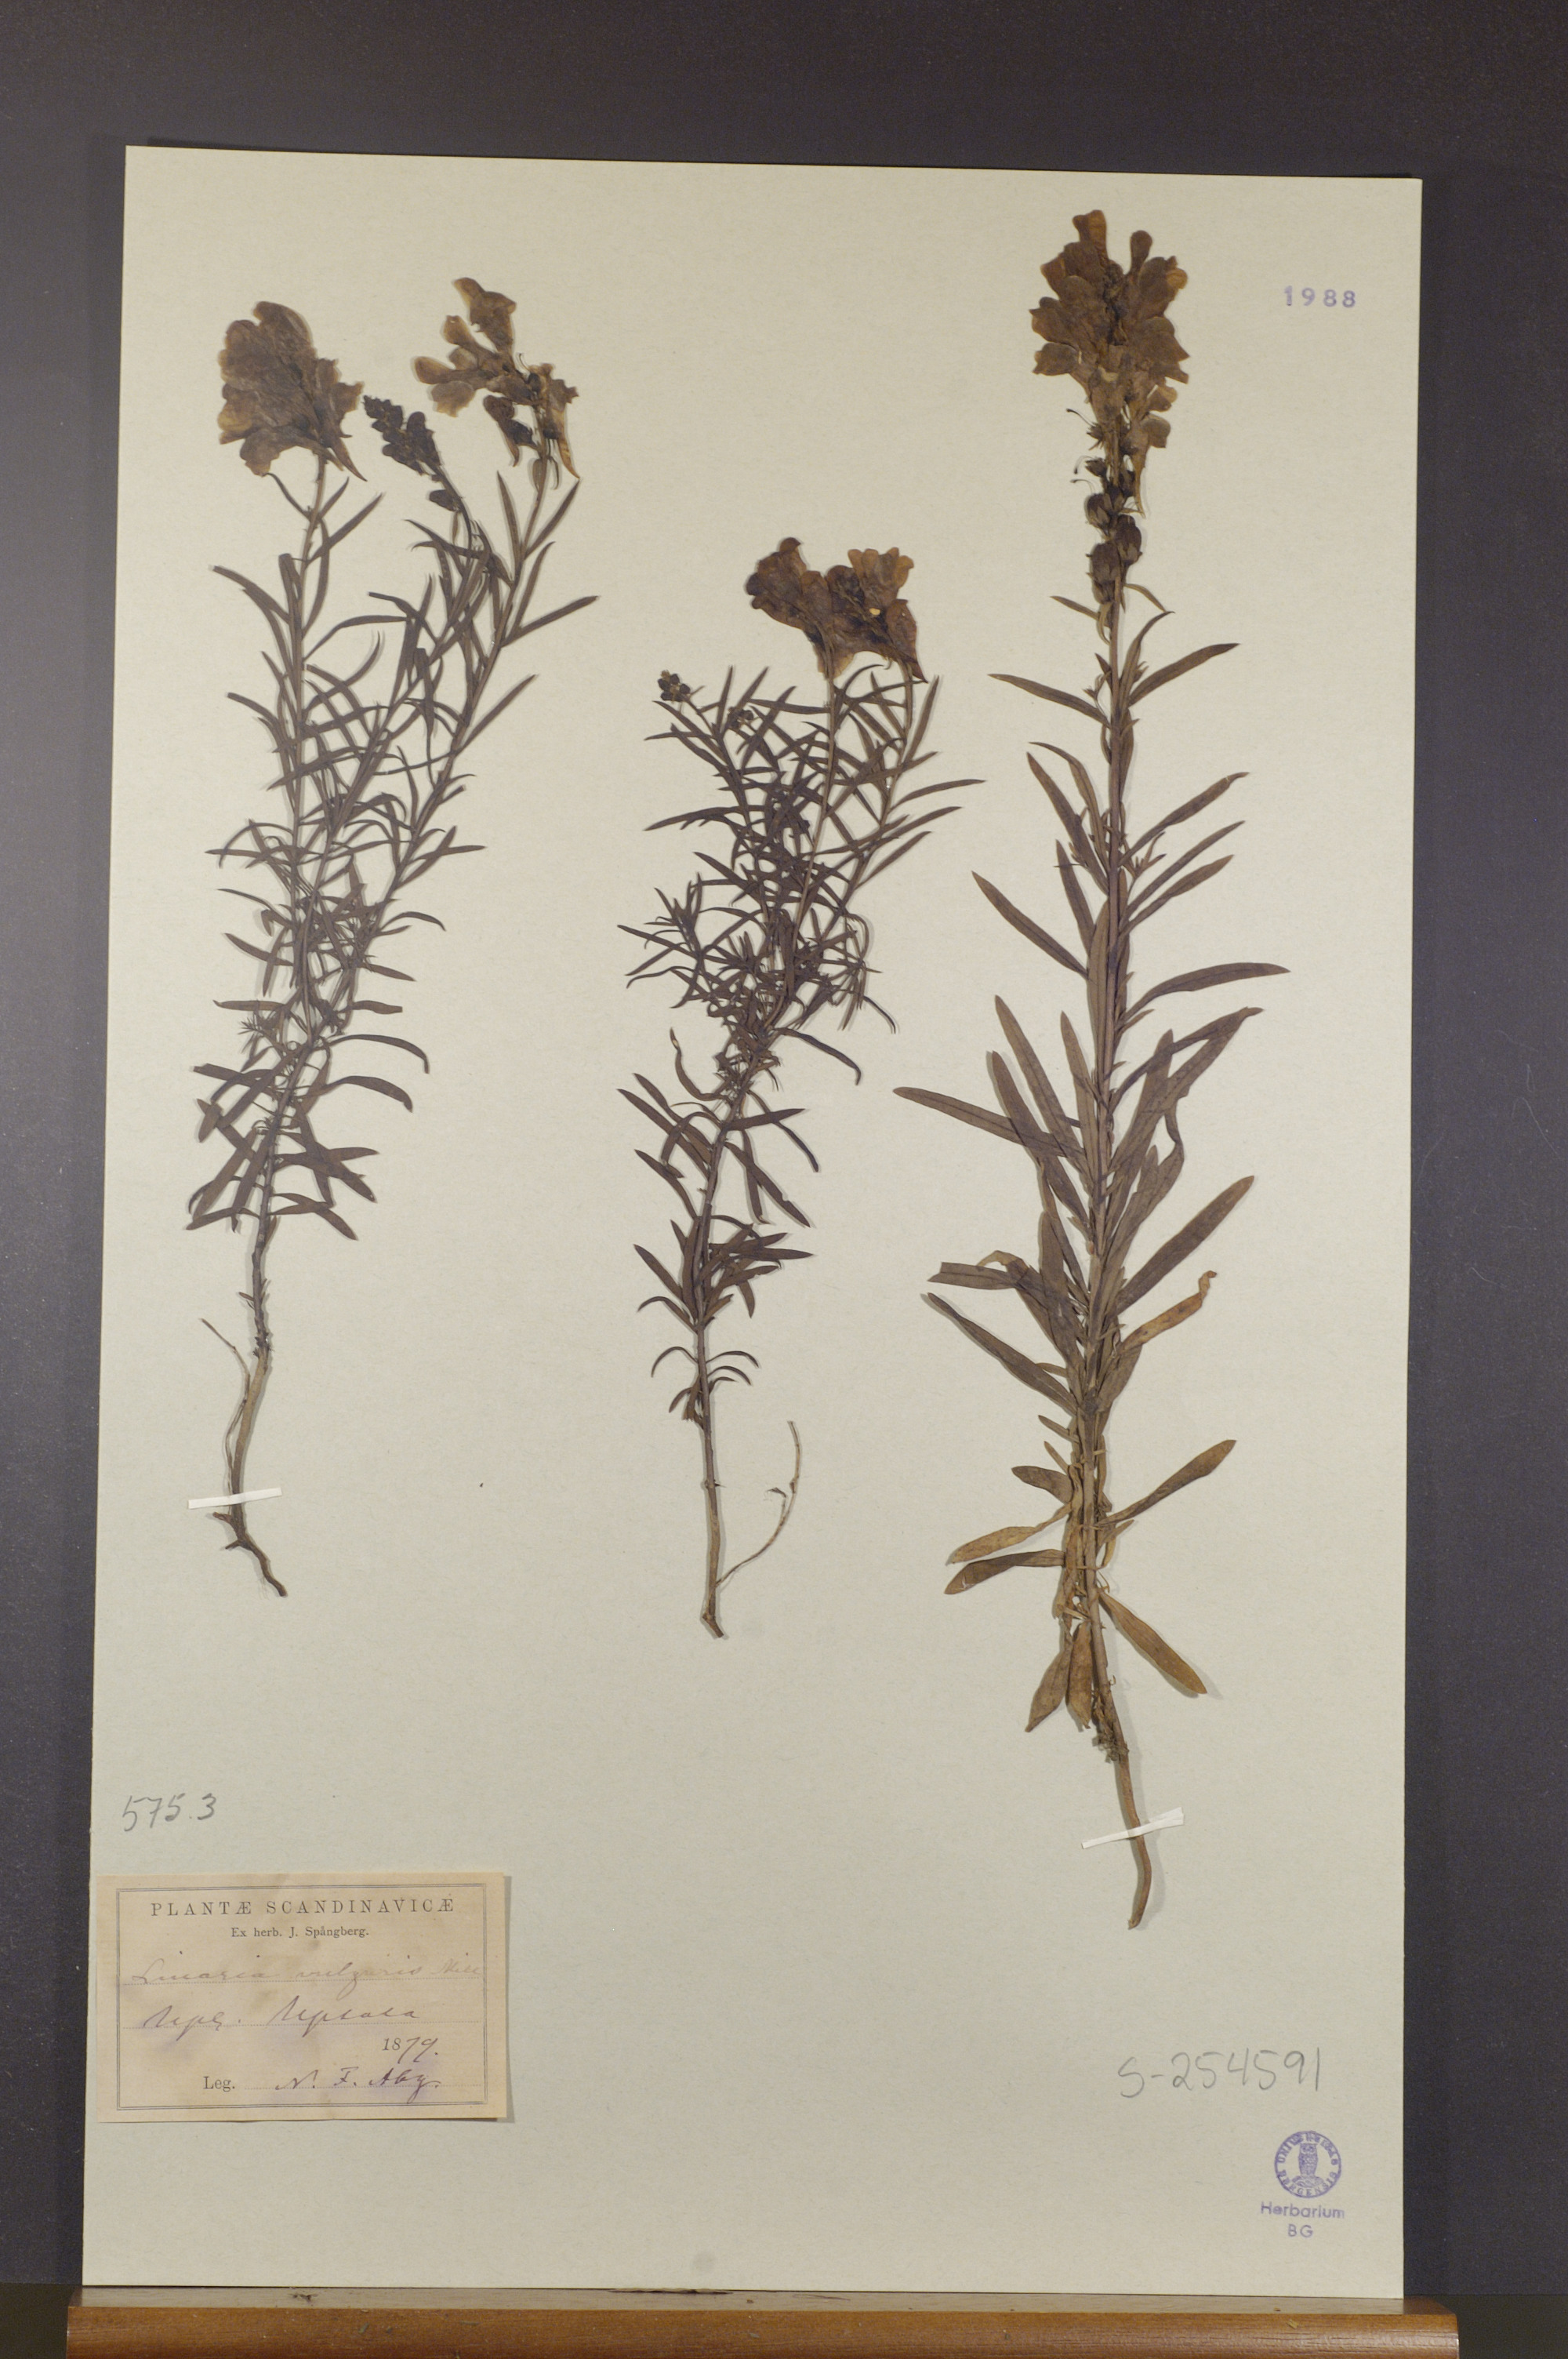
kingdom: Plantae
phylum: Tracheophyta
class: Magnoliopsida
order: Lamiales
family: Plantaginaceae
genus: Linaria
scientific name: Linaria vulgaris
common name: Butter and eggs
